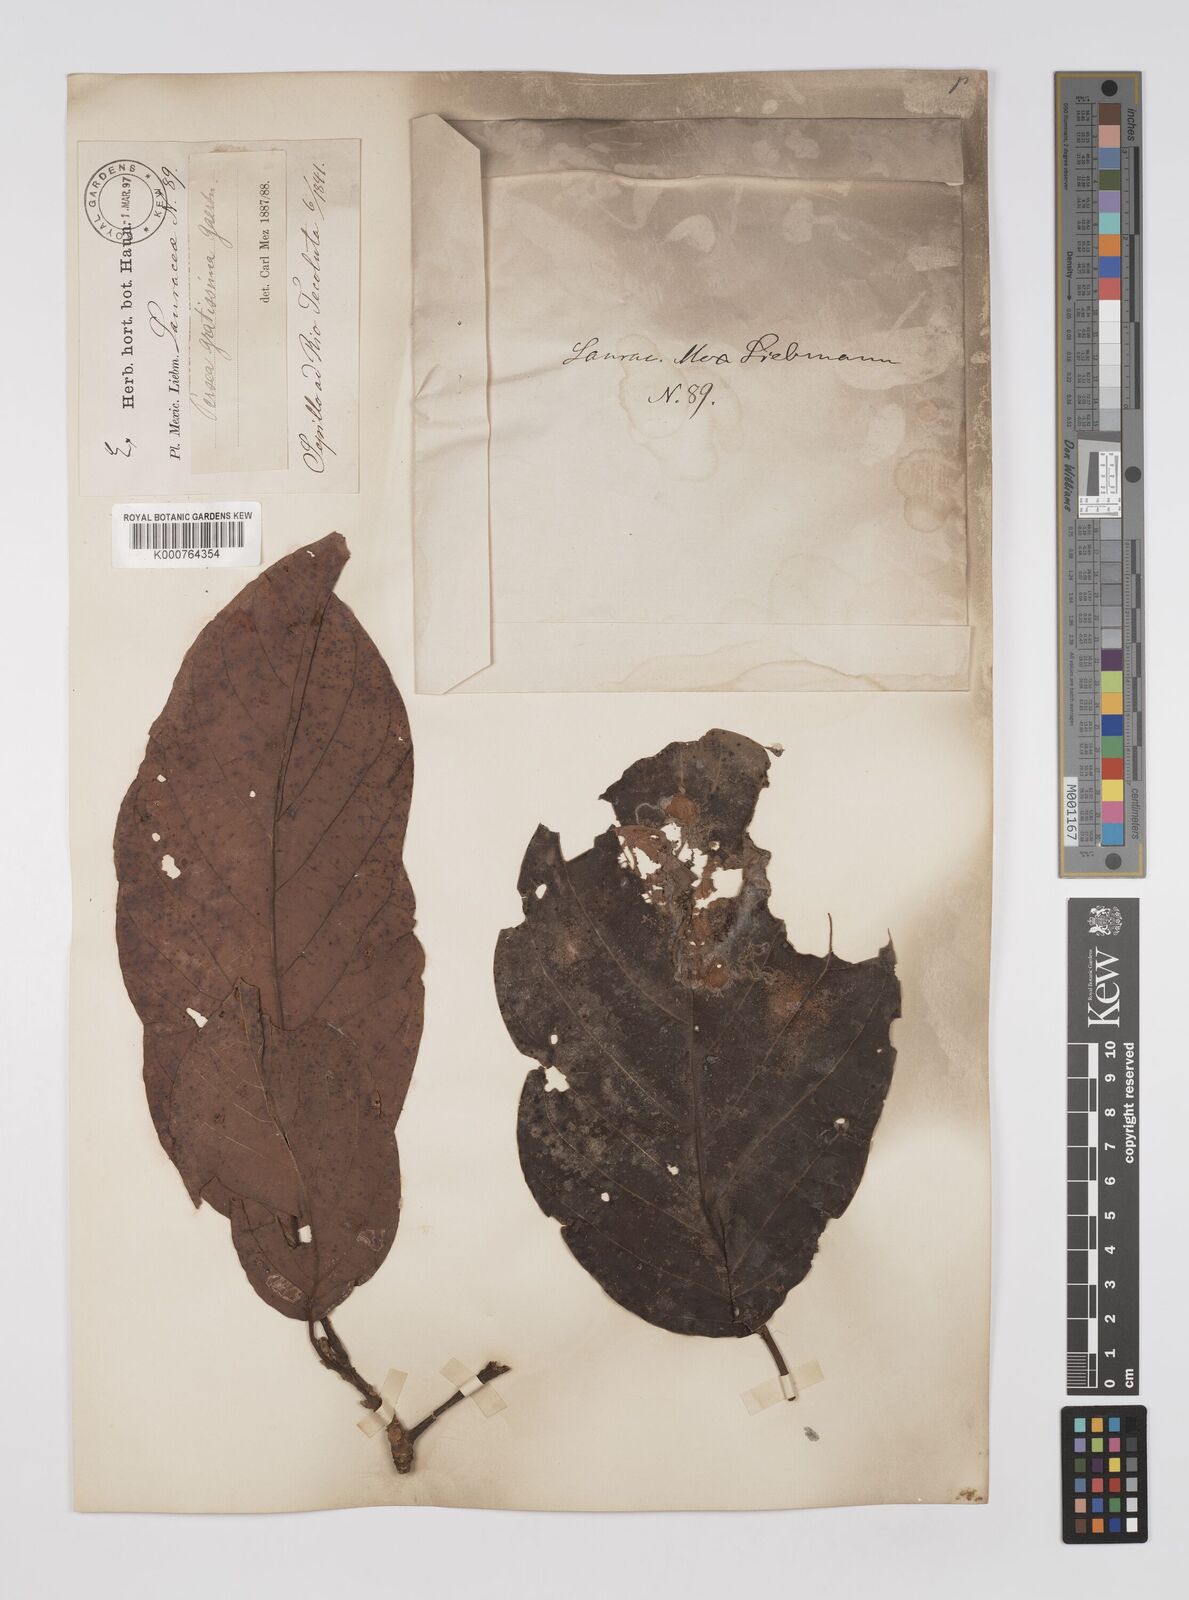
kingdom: Plantae
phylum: Tracheophyta
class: Magnoliopsida
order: Laurales
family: Lauraceae
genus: Persea
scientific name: Persea americana
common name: Avocado
